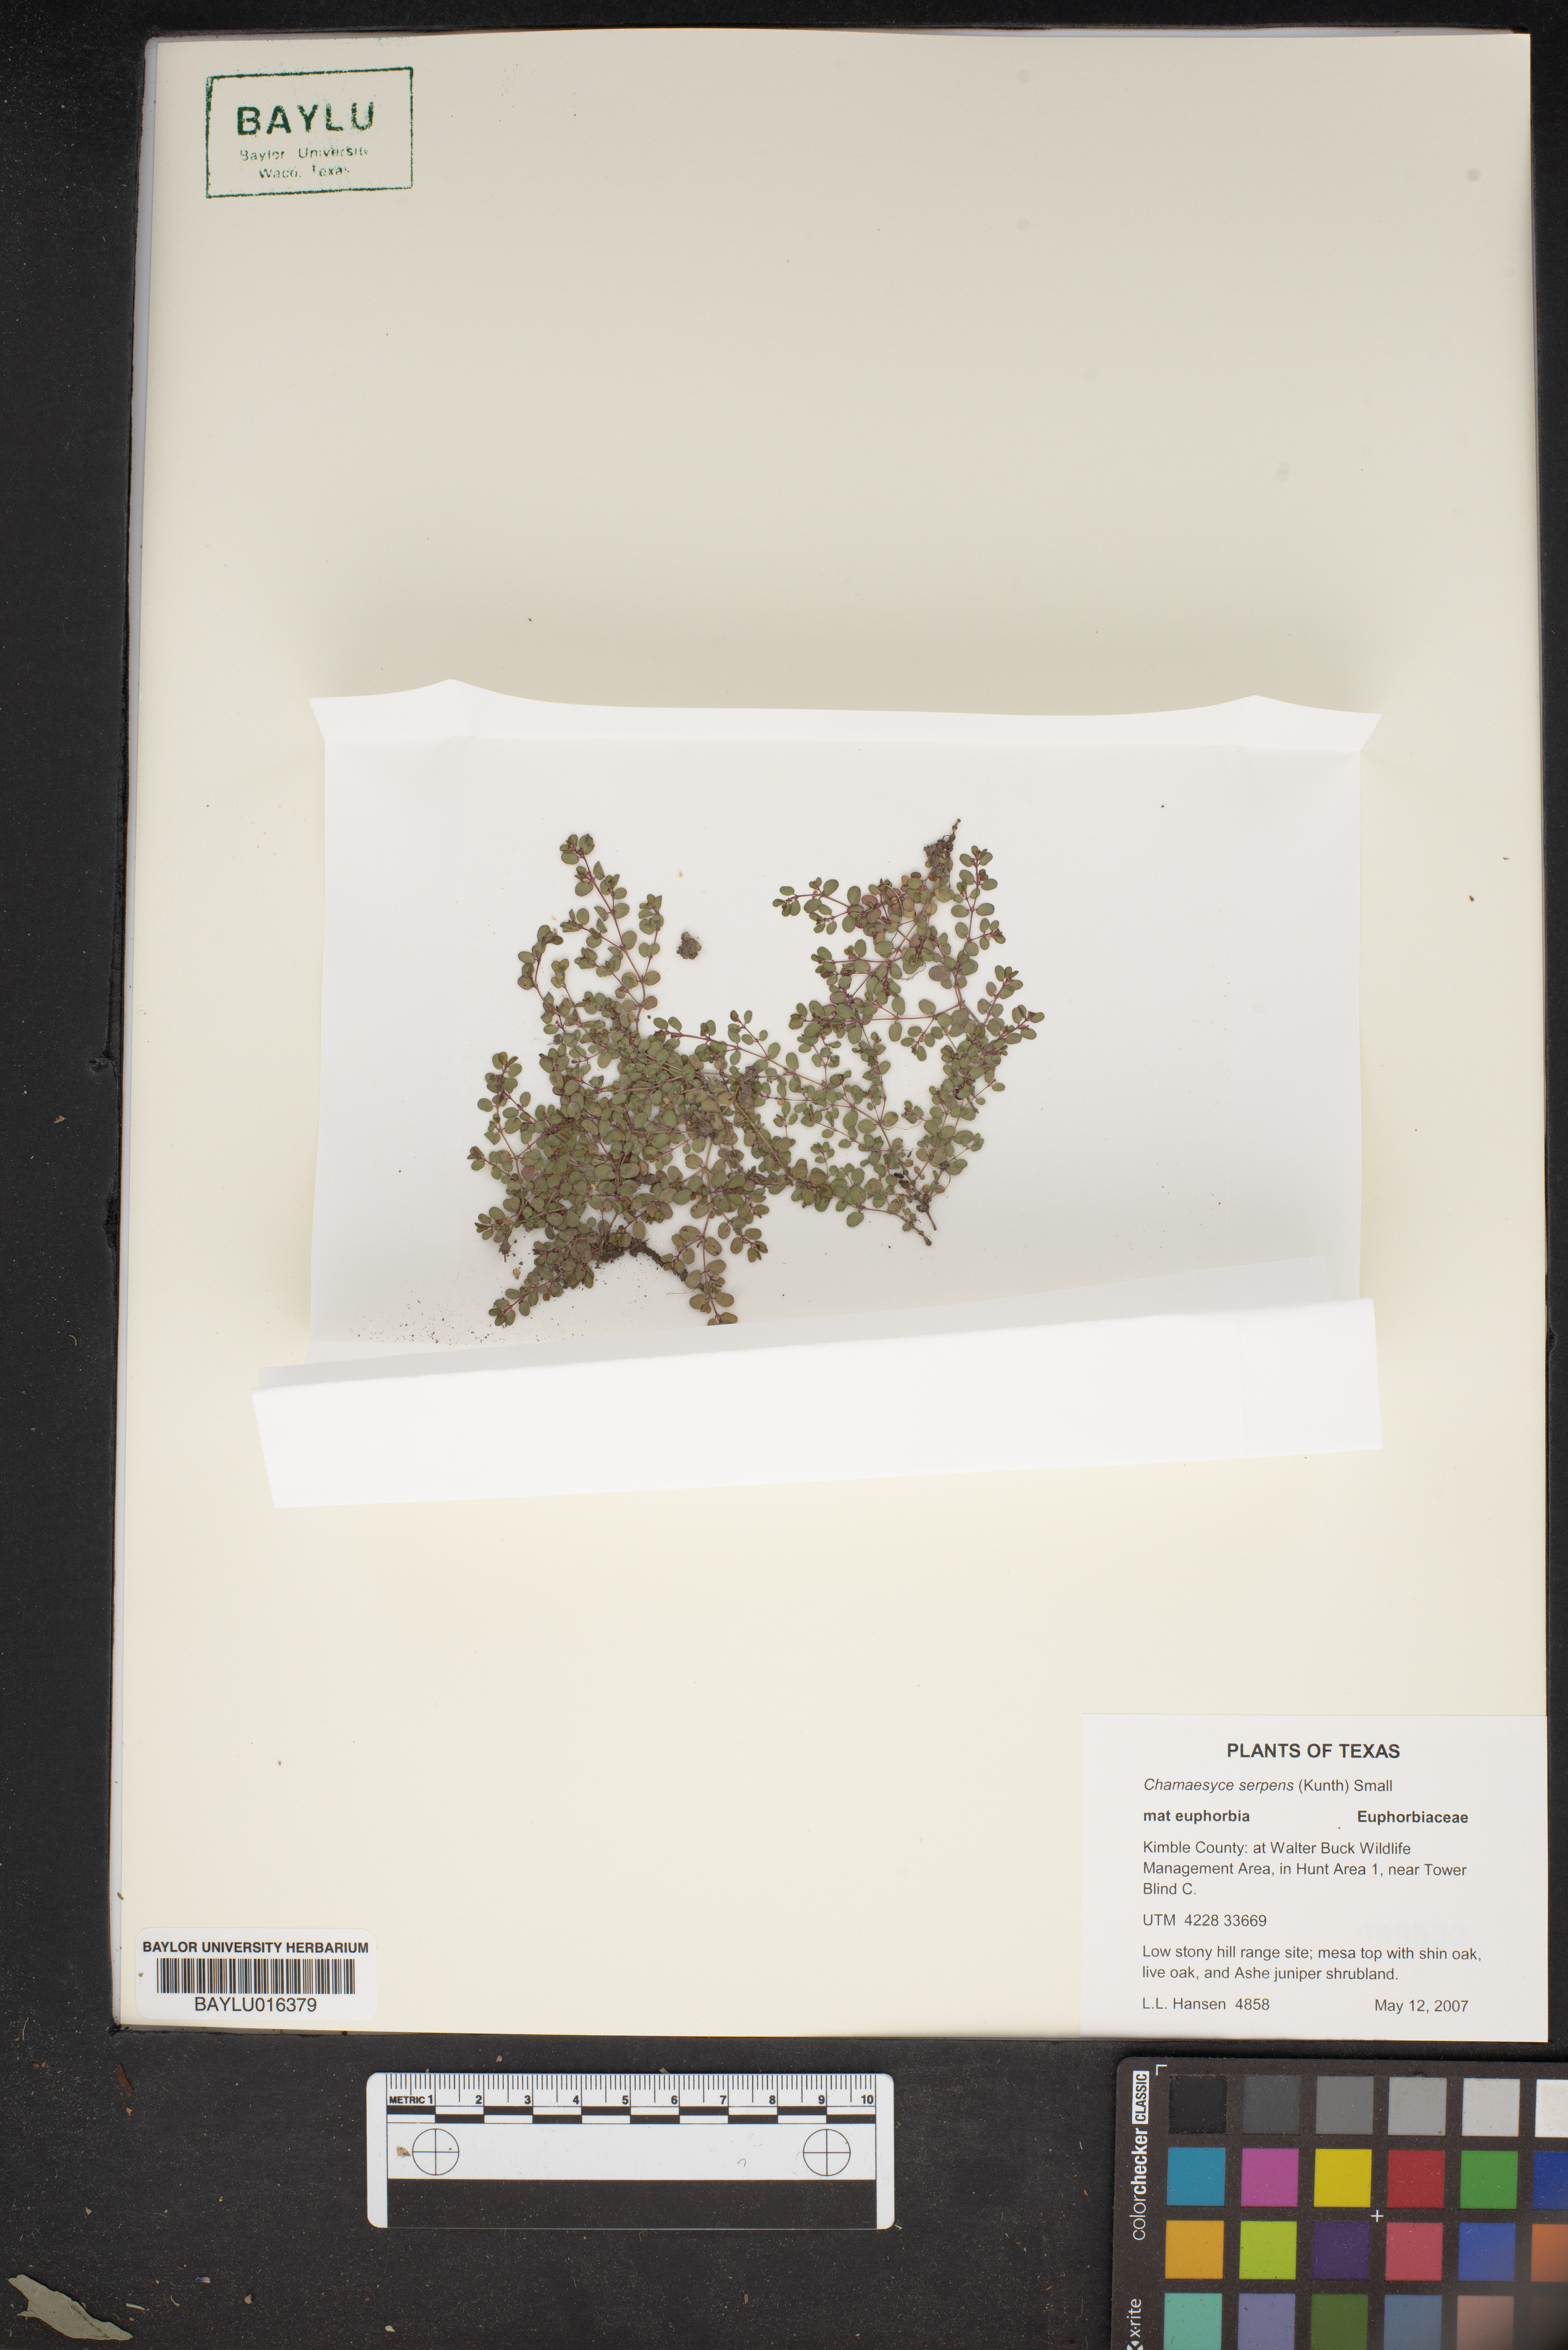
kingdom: Plantae
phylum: Tracheophyta
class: Magnoliopsida
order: Malpighiales
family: Euphorbiaceae
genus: Euphorbia
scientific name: Euphorbia serpens
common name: Matted sandmat
